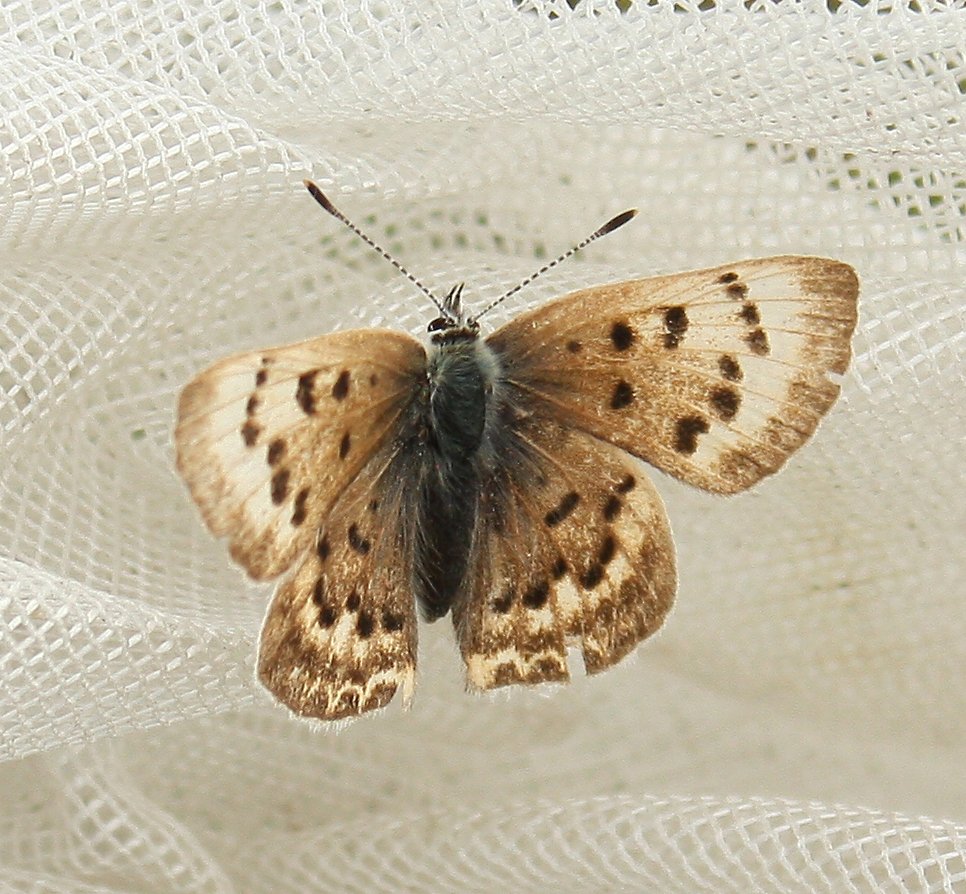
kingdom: Animalia
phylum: Arthropoda
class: Insecta
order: Lepidoptera
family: Lycaenidae
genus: Epidemia
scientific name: Epidemia dorcas
